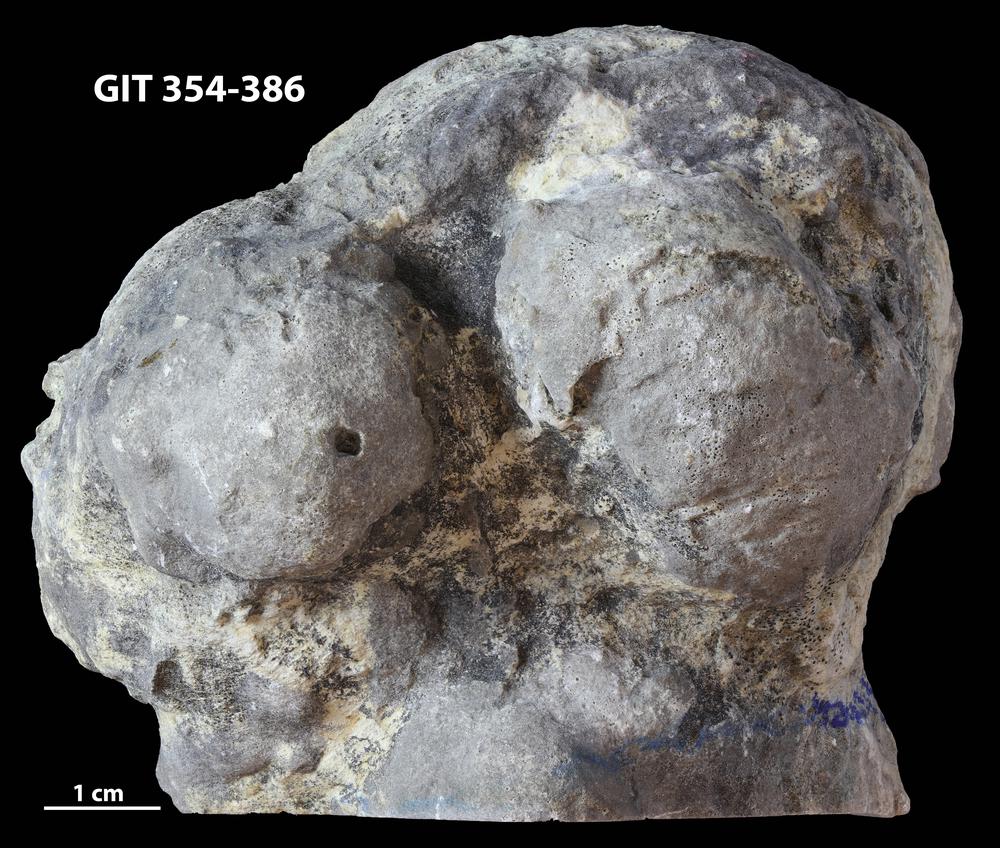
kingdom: Animalia
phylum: Porifera
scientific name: Porifera
